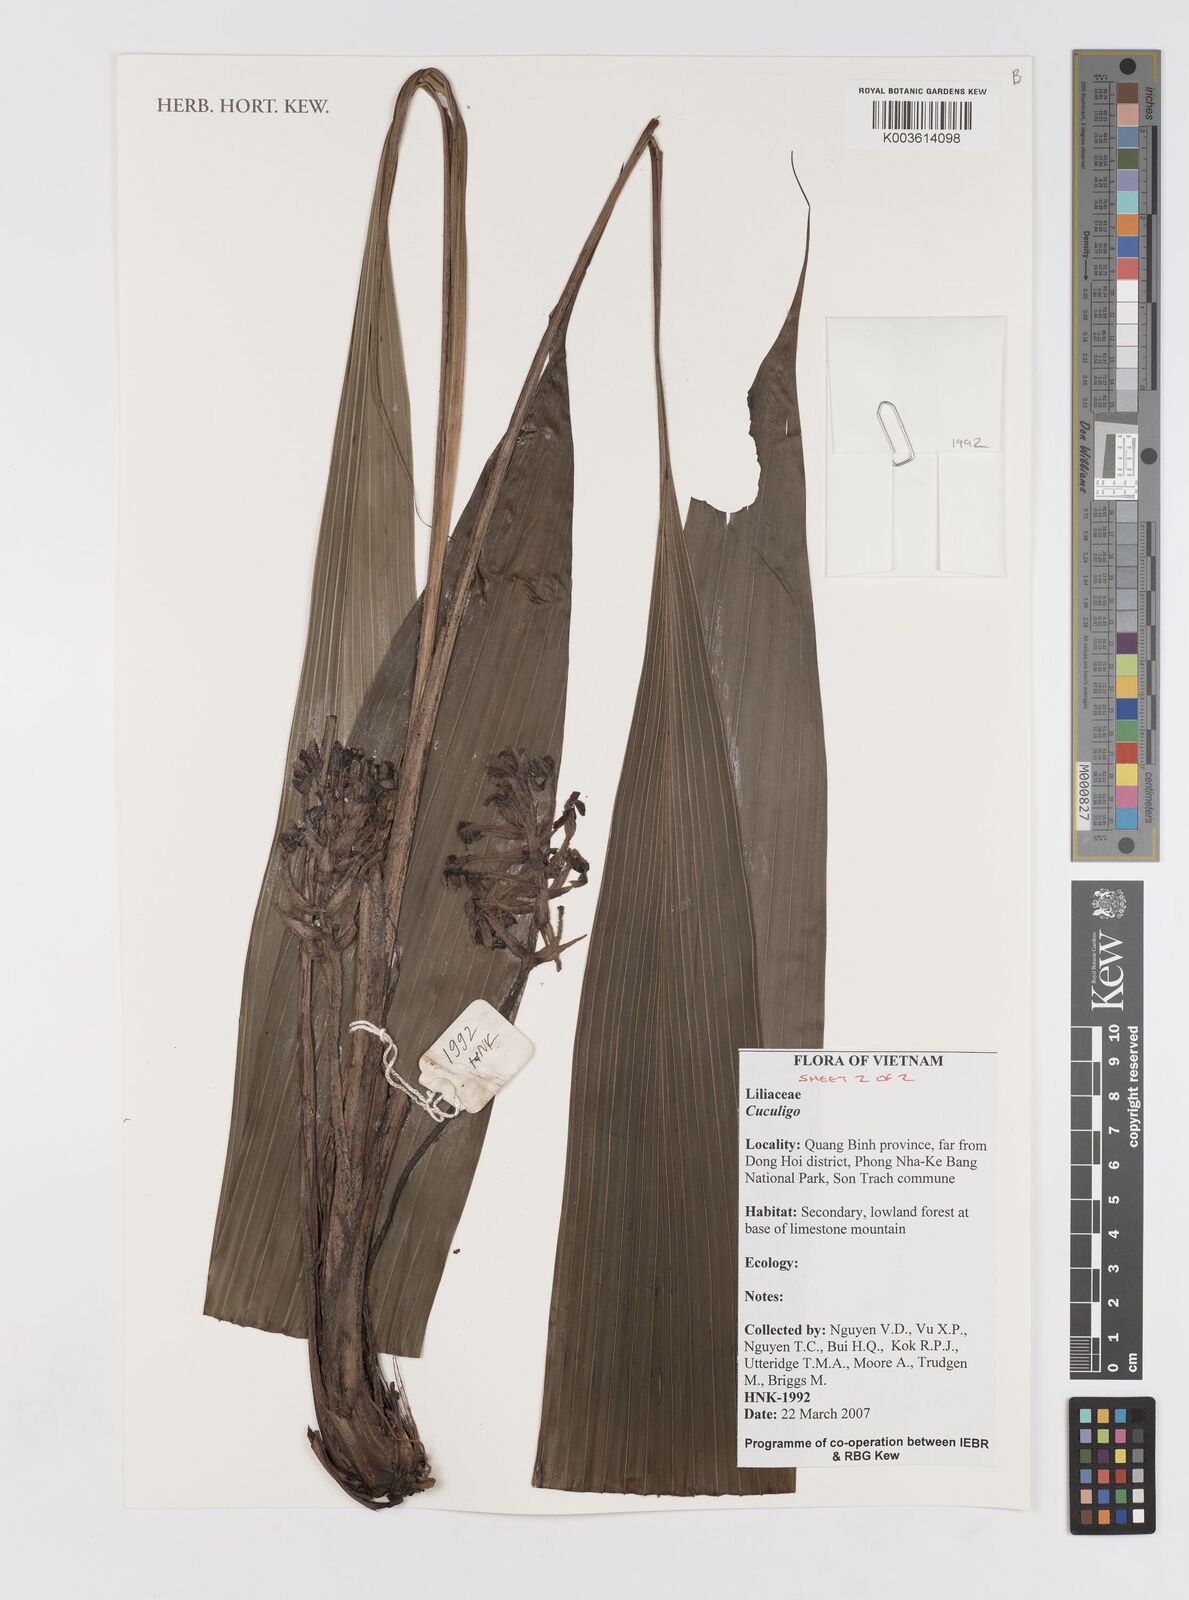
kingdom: Plantae
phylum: Tracheophyta
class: Liliopsida
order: Asparagales
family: Hypoxidaceae
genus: Curculigo
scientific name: Curculigo
